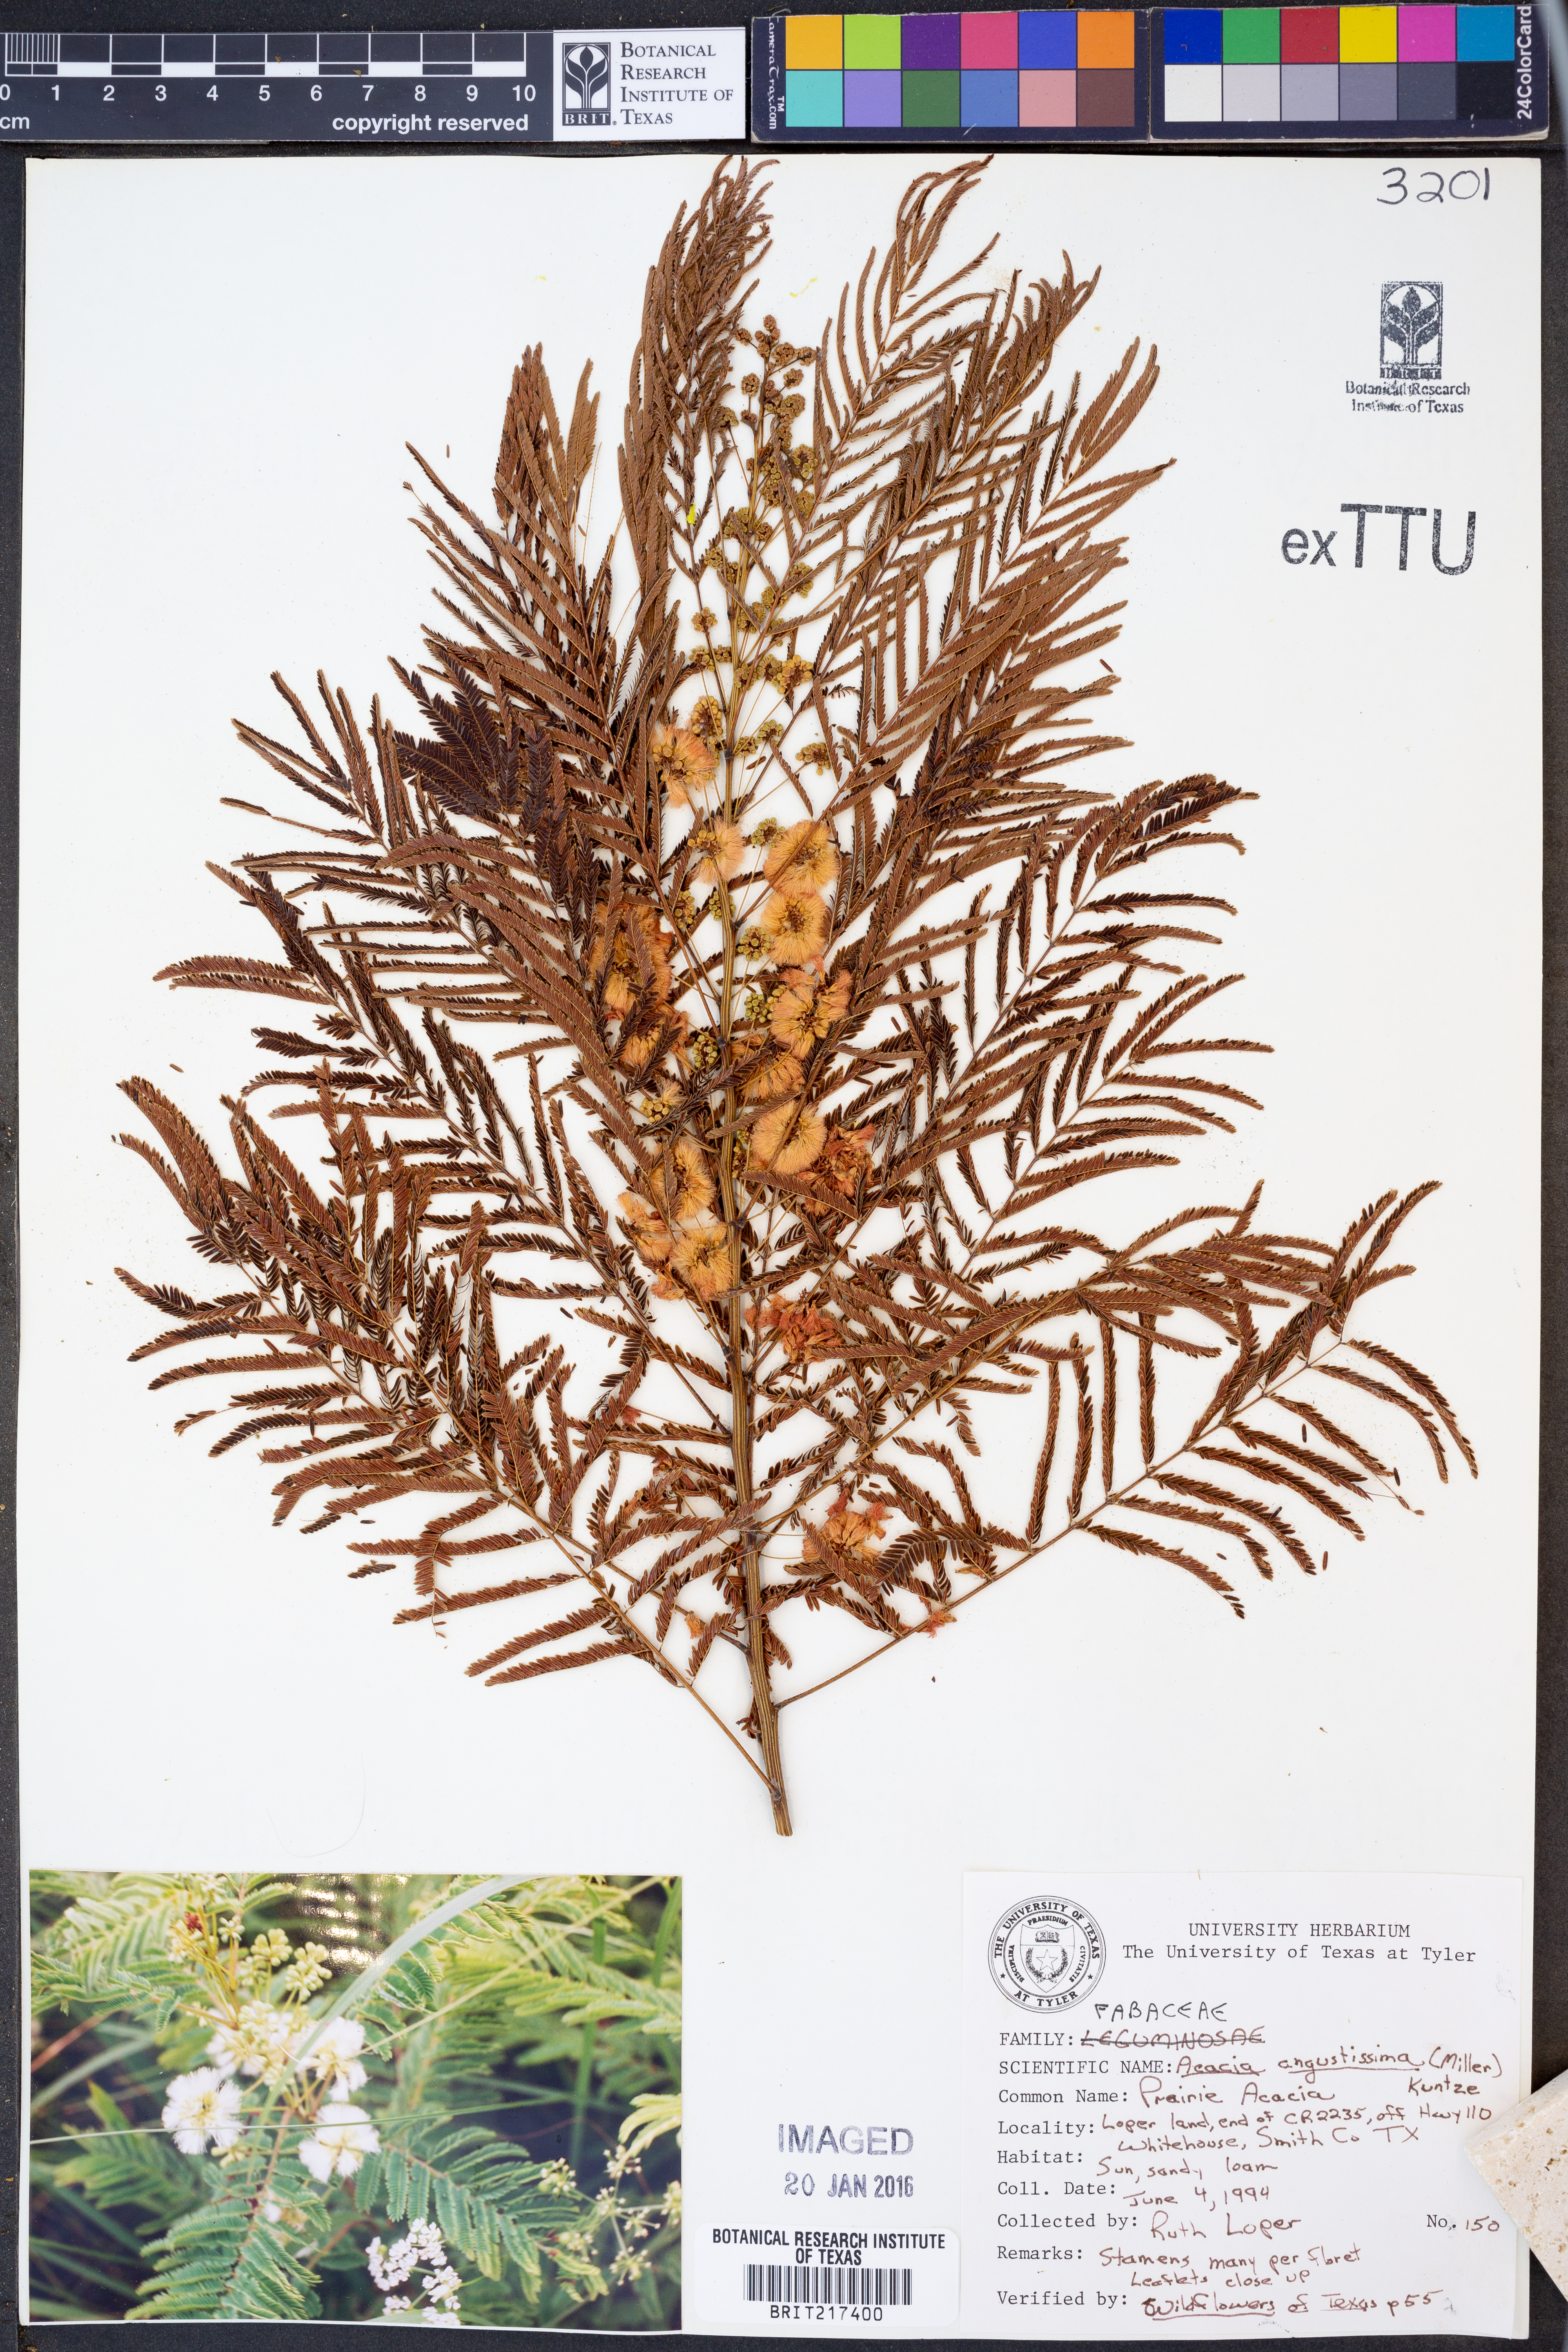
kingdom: Plantae
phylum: Tracheophyta
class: Magnoliopsida
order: Fabales
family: Fabaceae
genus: Acaciella
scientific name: Acaciella angustissima
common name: Prairie acacia
